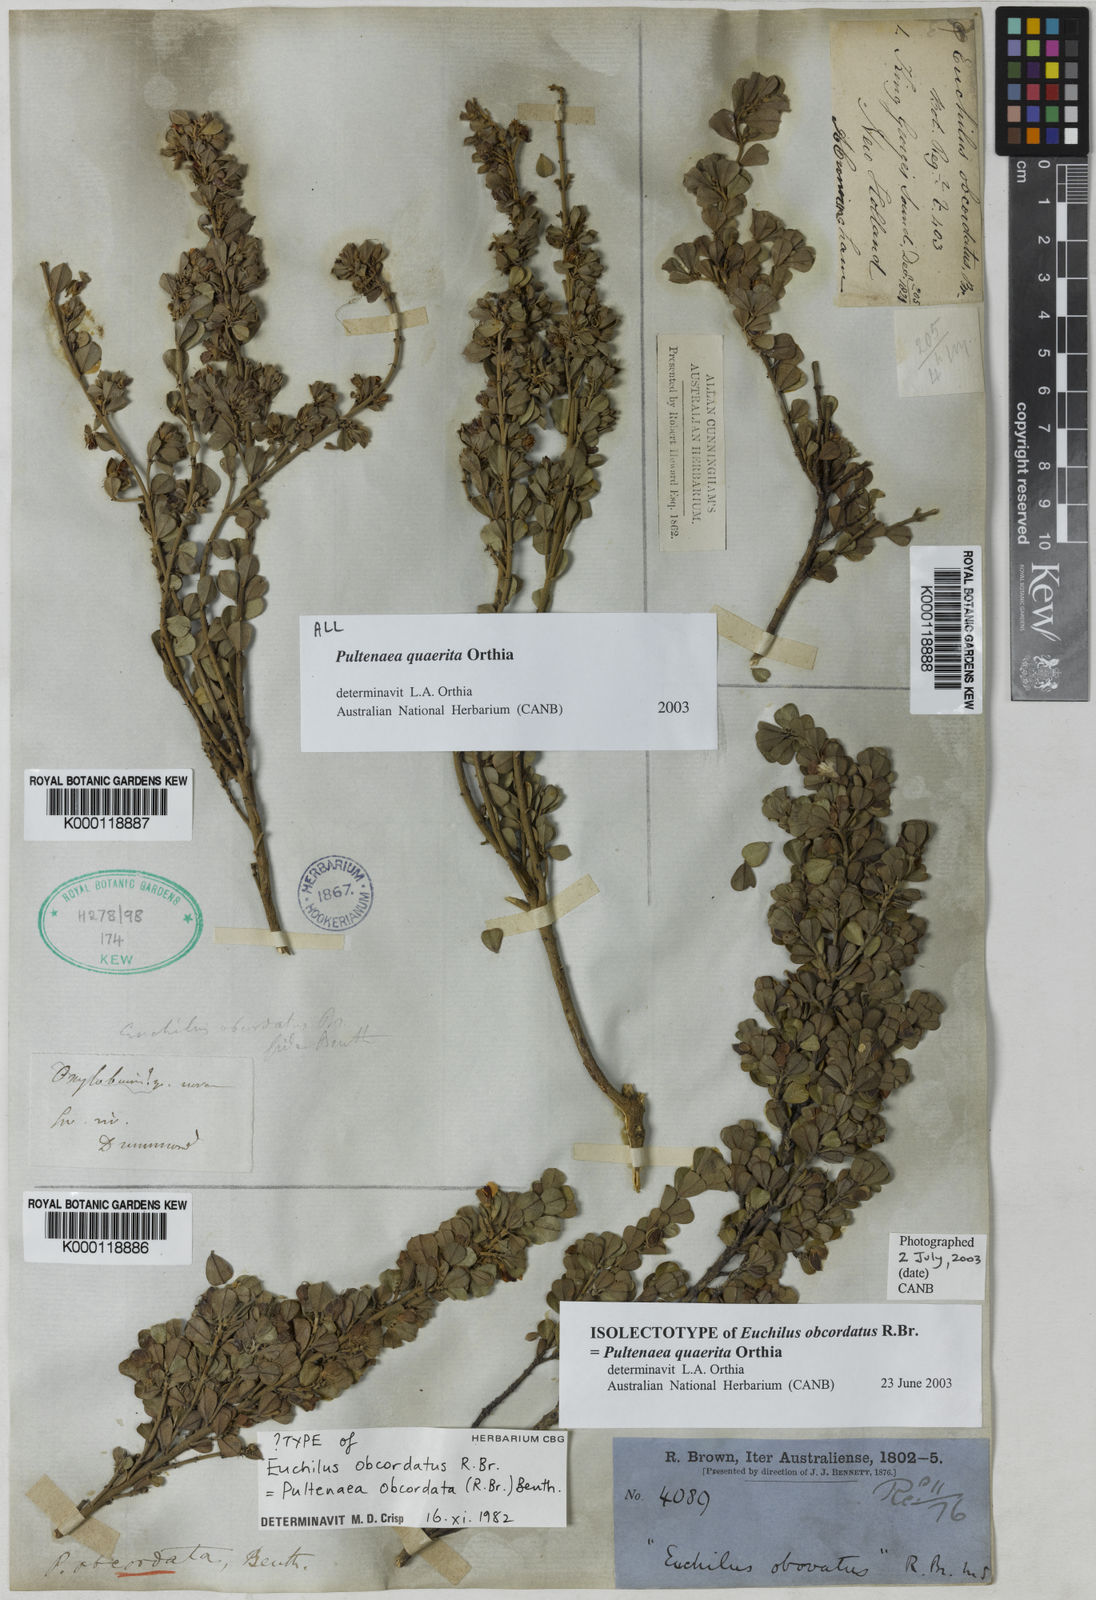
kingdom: Plantae
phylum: Tracheophyta
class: Magnoliopsida
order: Fabales
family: Fabaceae
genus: Pultenaea
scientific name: Pultenaea heterochila
